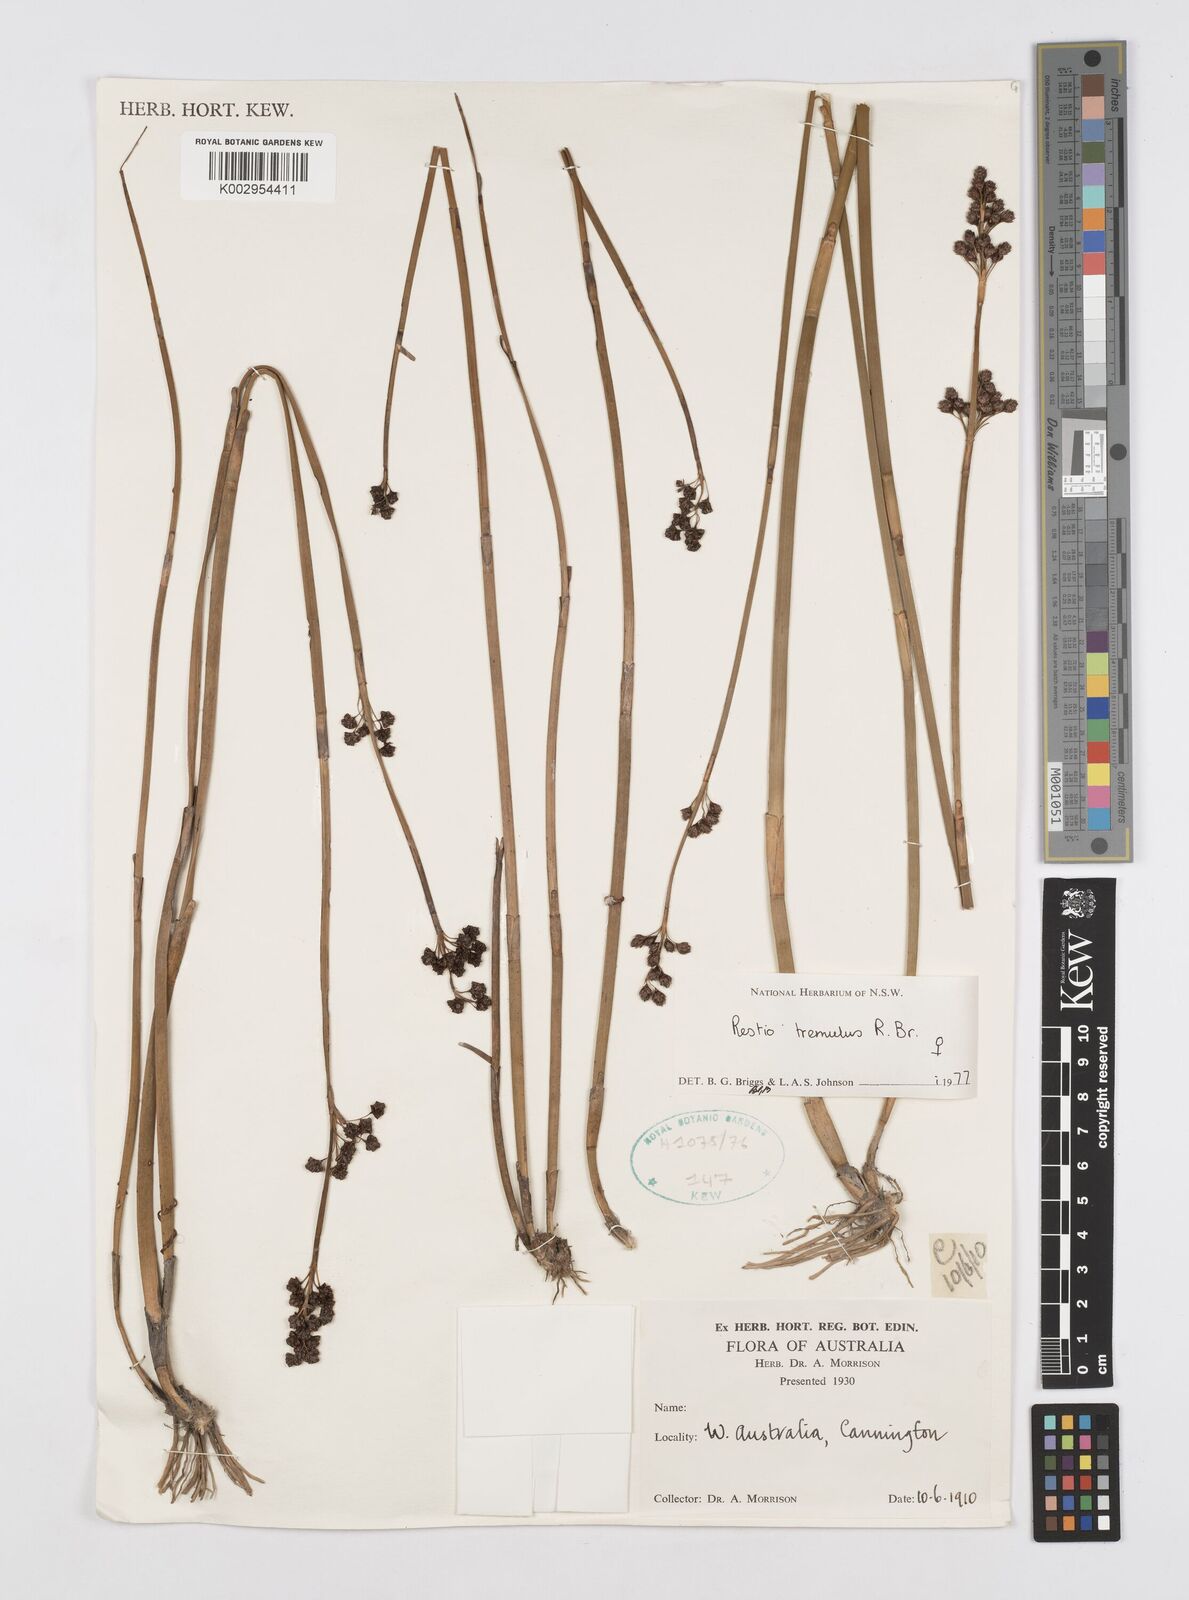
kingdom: Plantae
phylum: Tracheophyta
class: Liliopsida
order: Poales
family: Restionaceae
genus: Tremulina
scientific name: Tremulina tremula
